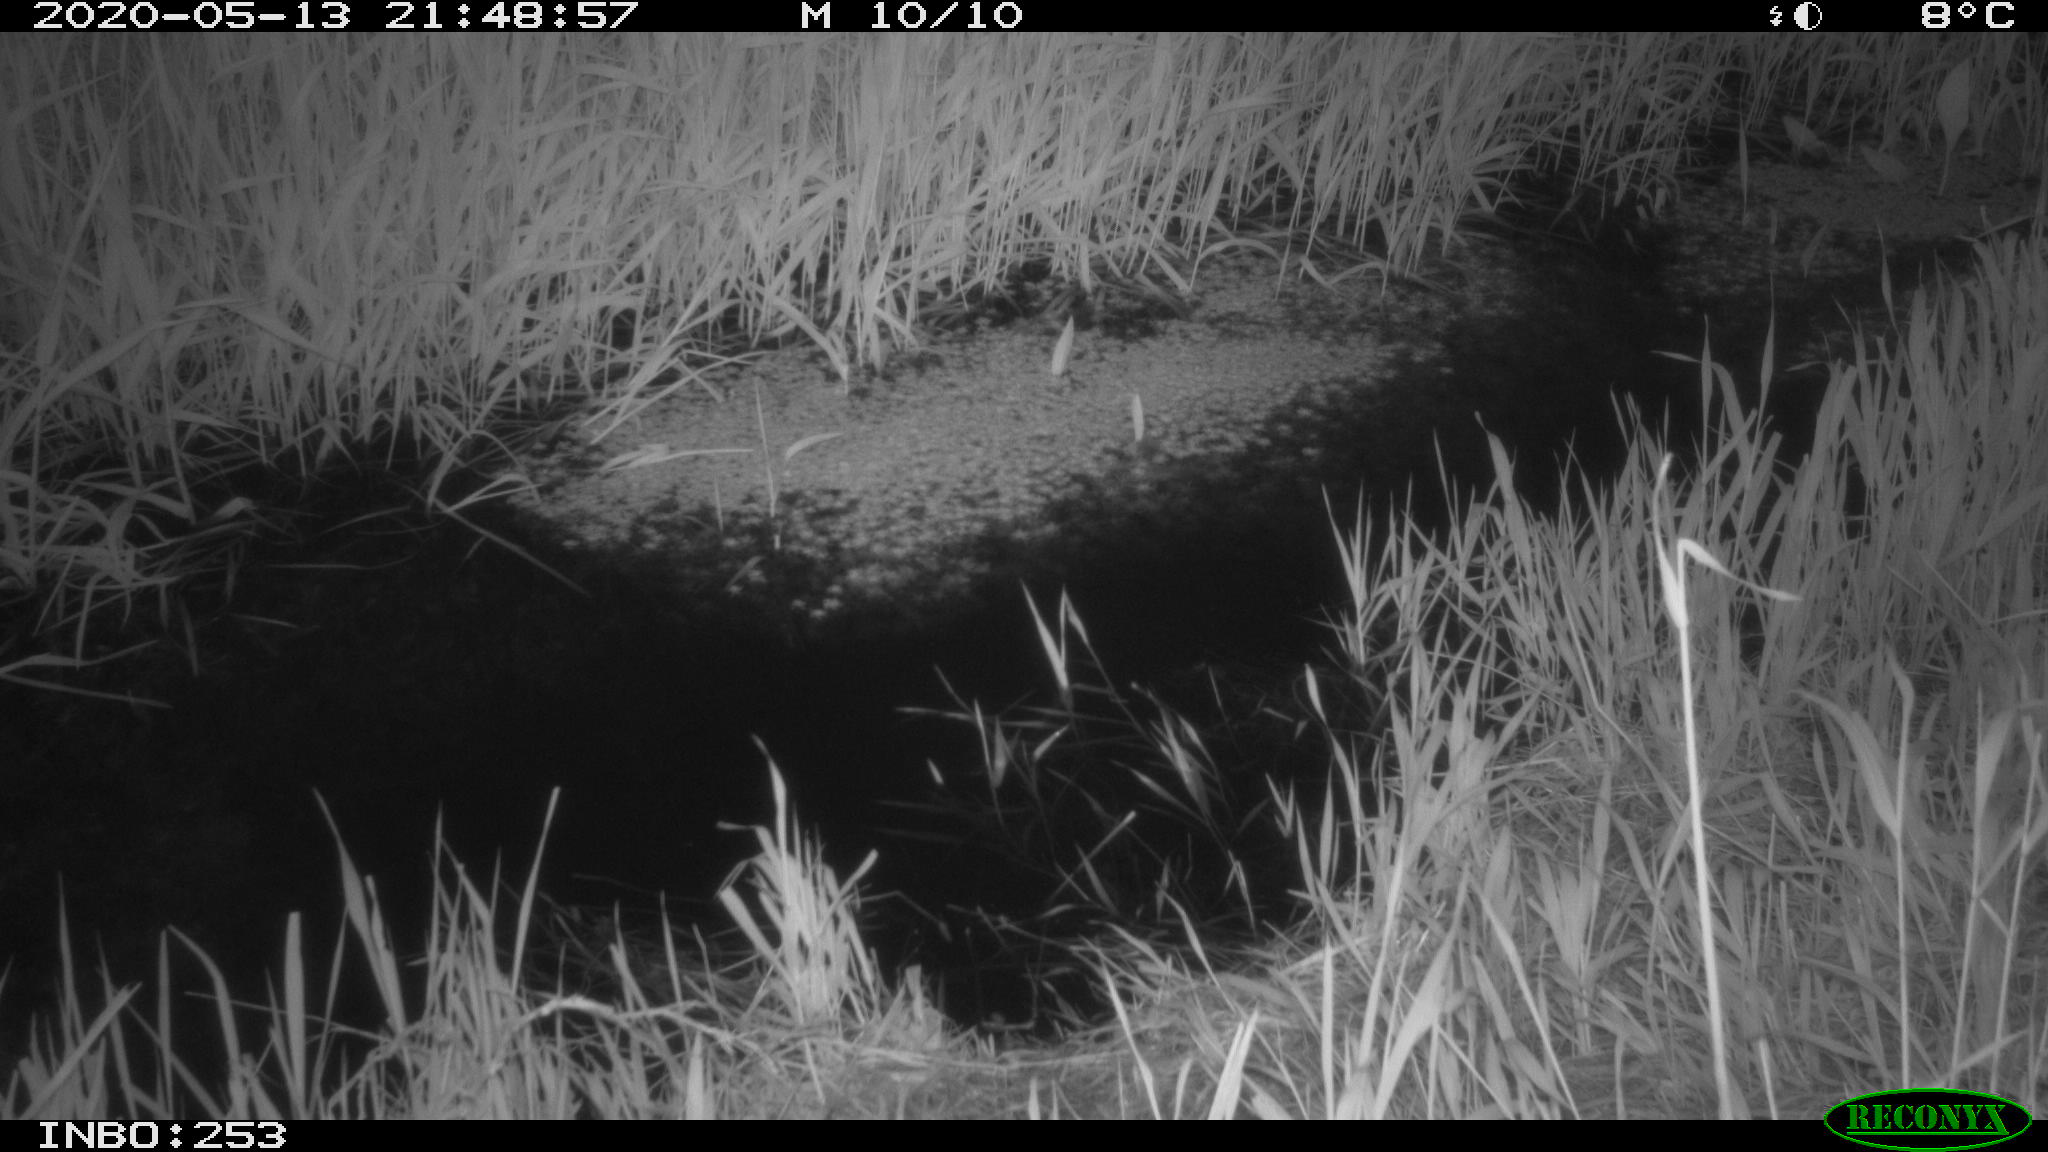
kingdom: Animalia
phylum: Chordata
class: Aves
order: Anseriformes
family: Anatidae
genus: Anas
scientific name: Anas platyrhynchos
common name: Mallard
